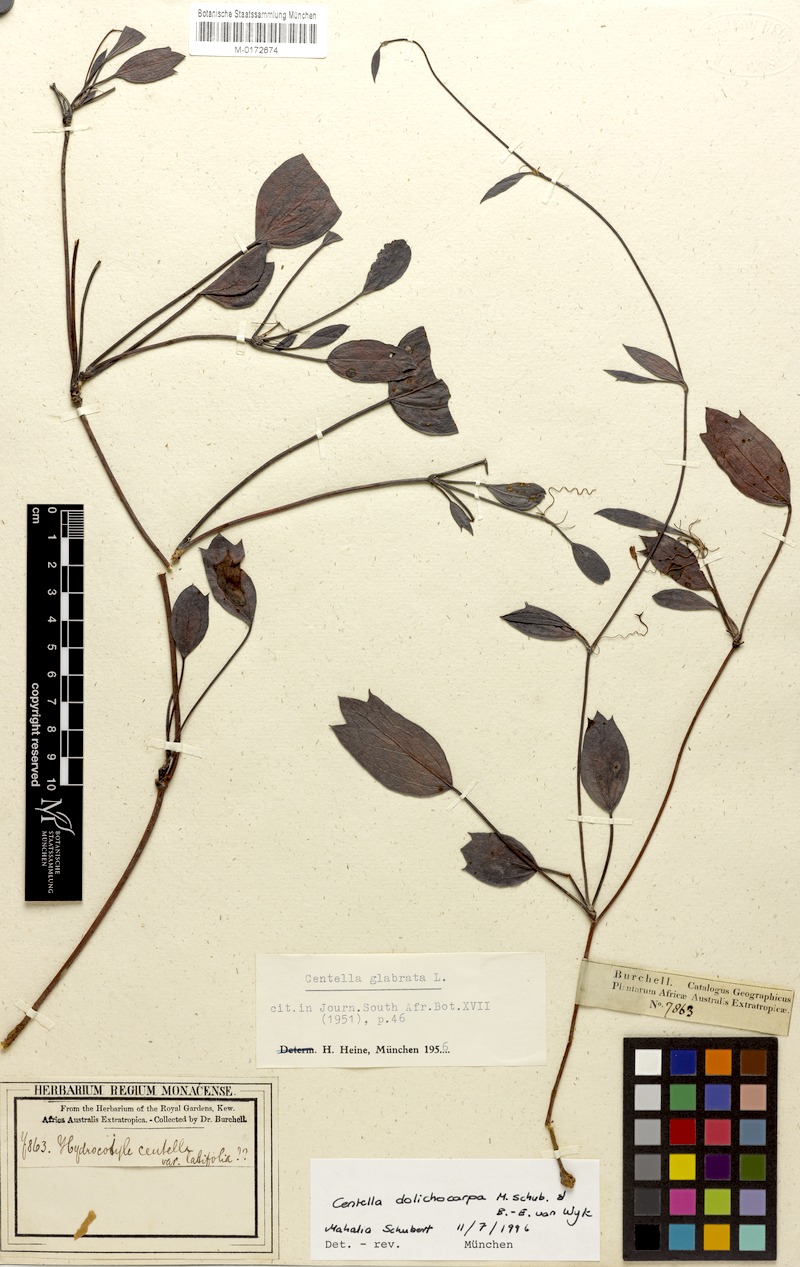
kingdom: Plantae
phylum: Tracheophyta
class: Magnoliopsida
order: Apiales
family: Apiaceae
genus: Centella
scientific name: Centella dolichocarpa
